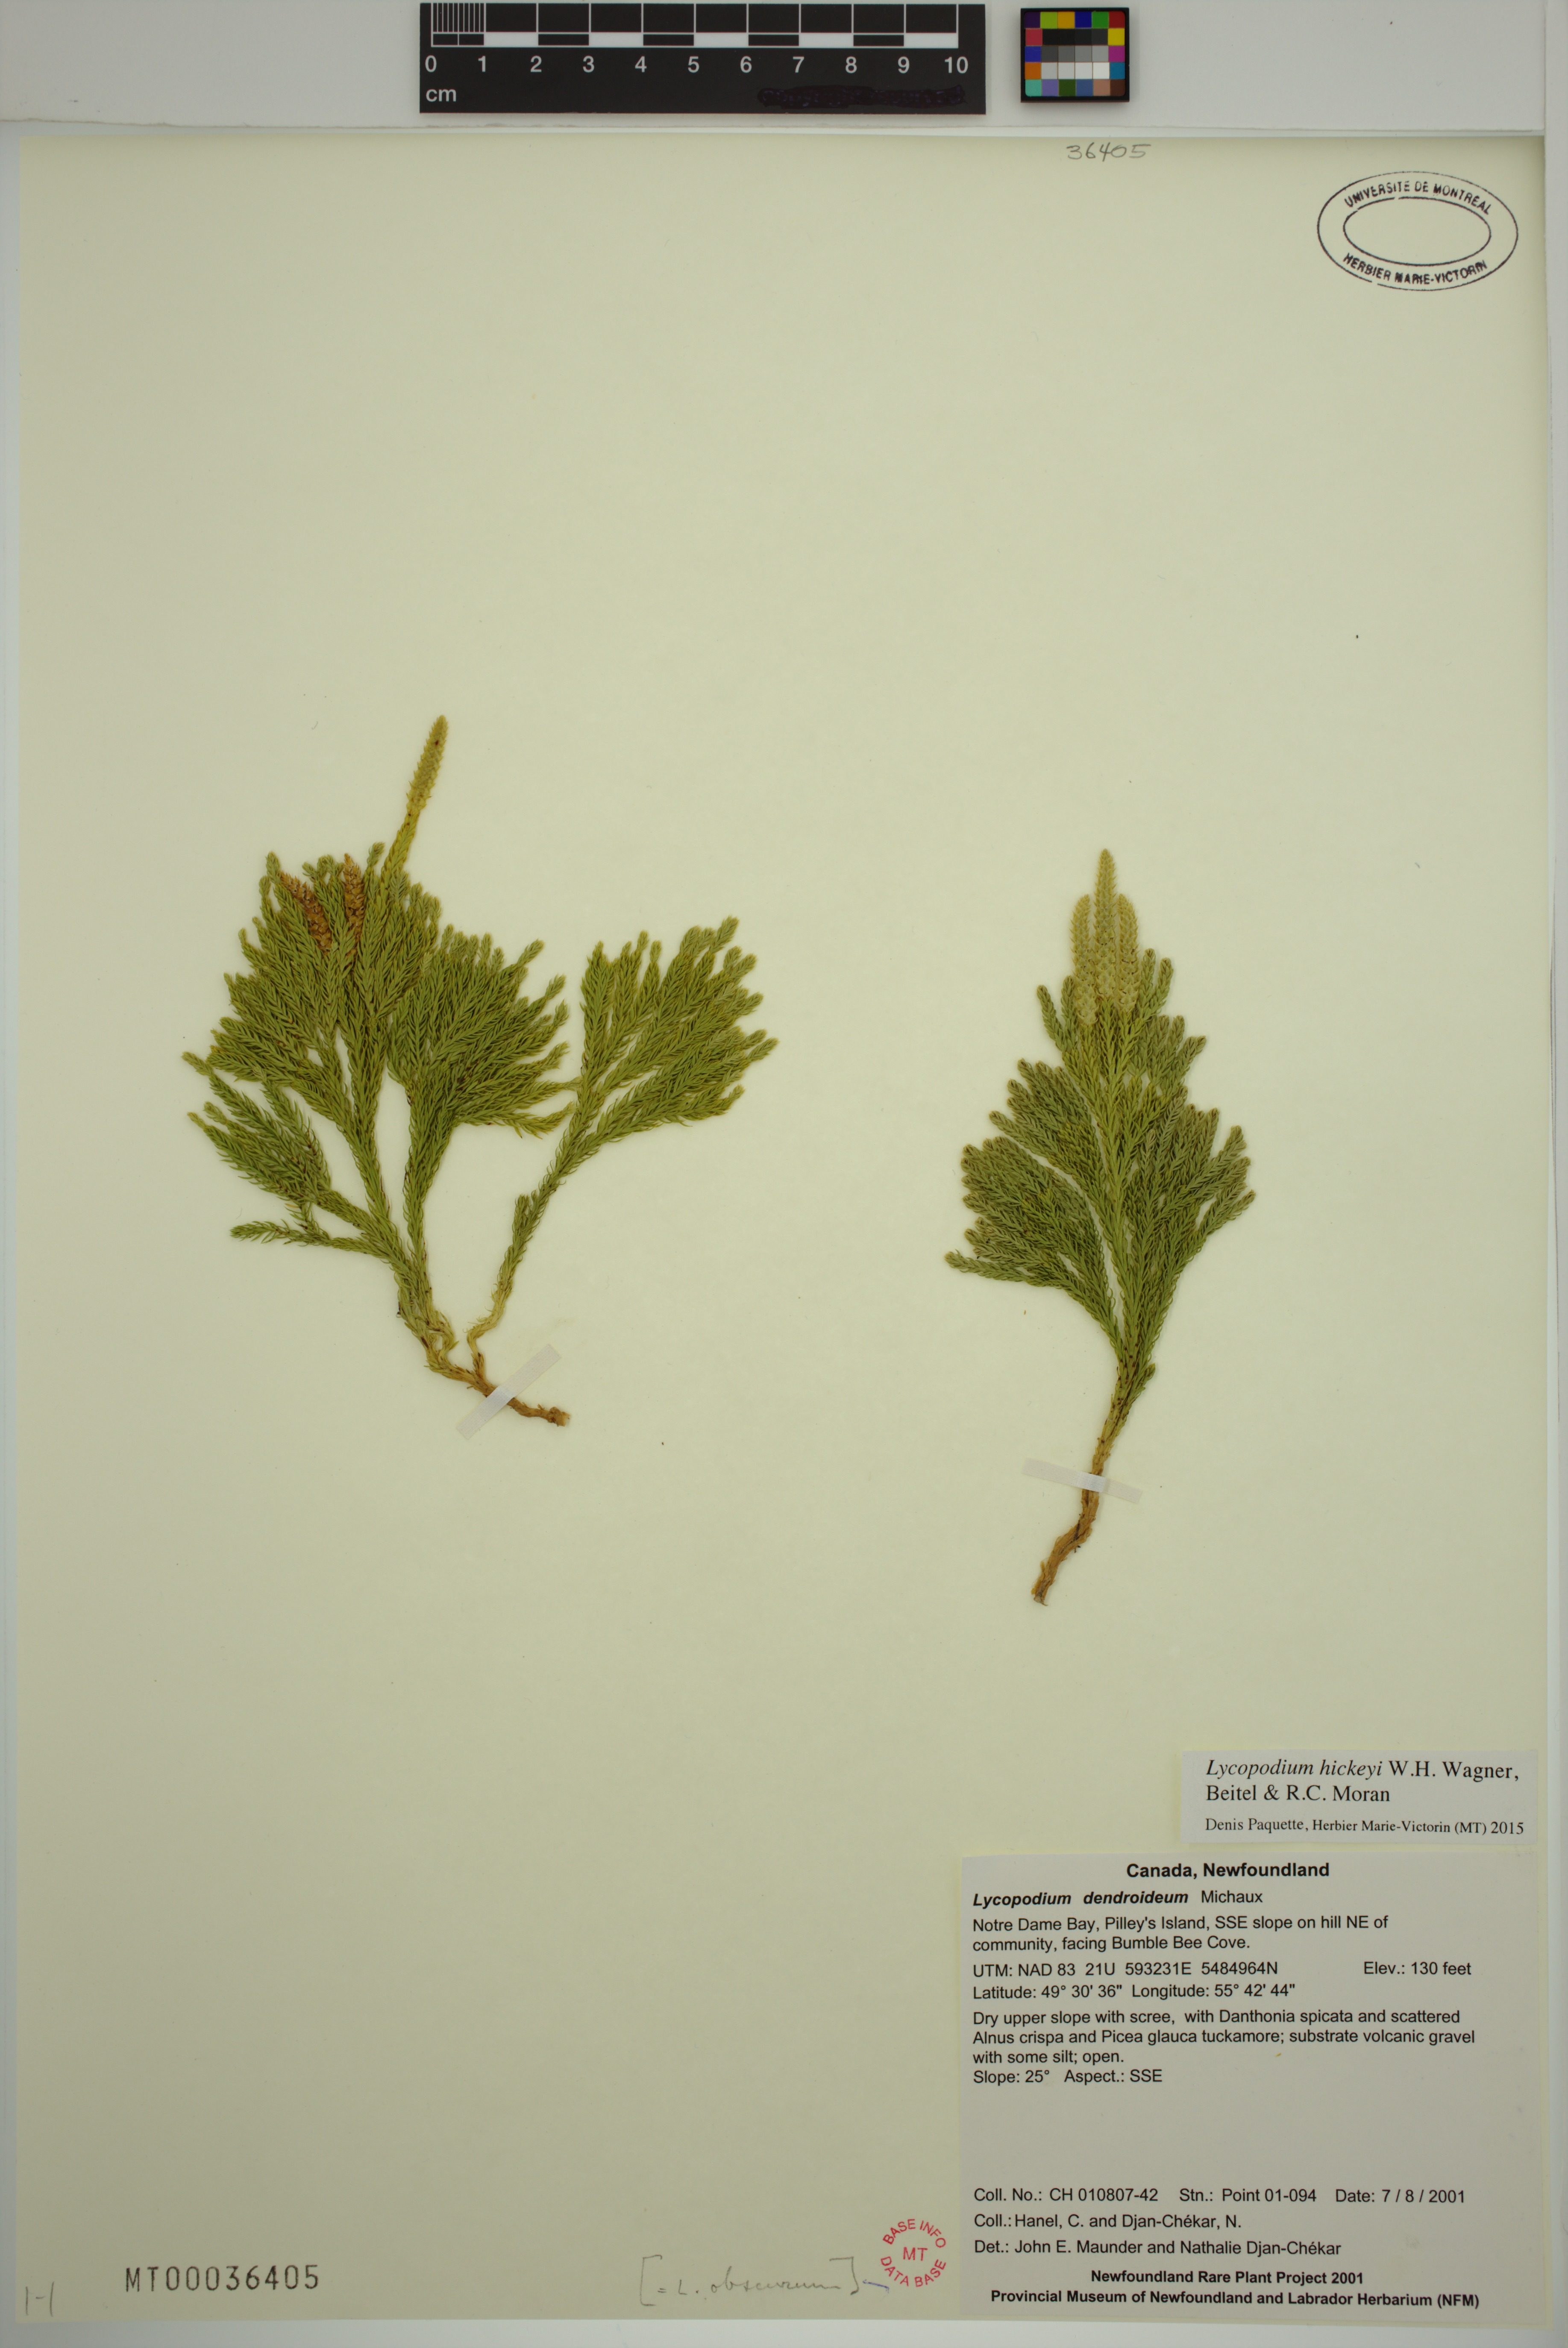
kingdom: Plantae
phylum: Tracheophyta
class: Lycopodiopsida
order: Lycopodiales
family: Lycopodiaceae
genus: Dendrolycopodium
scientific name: Dendrolycopodium hickeyi
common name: Hickey's clubmoss
